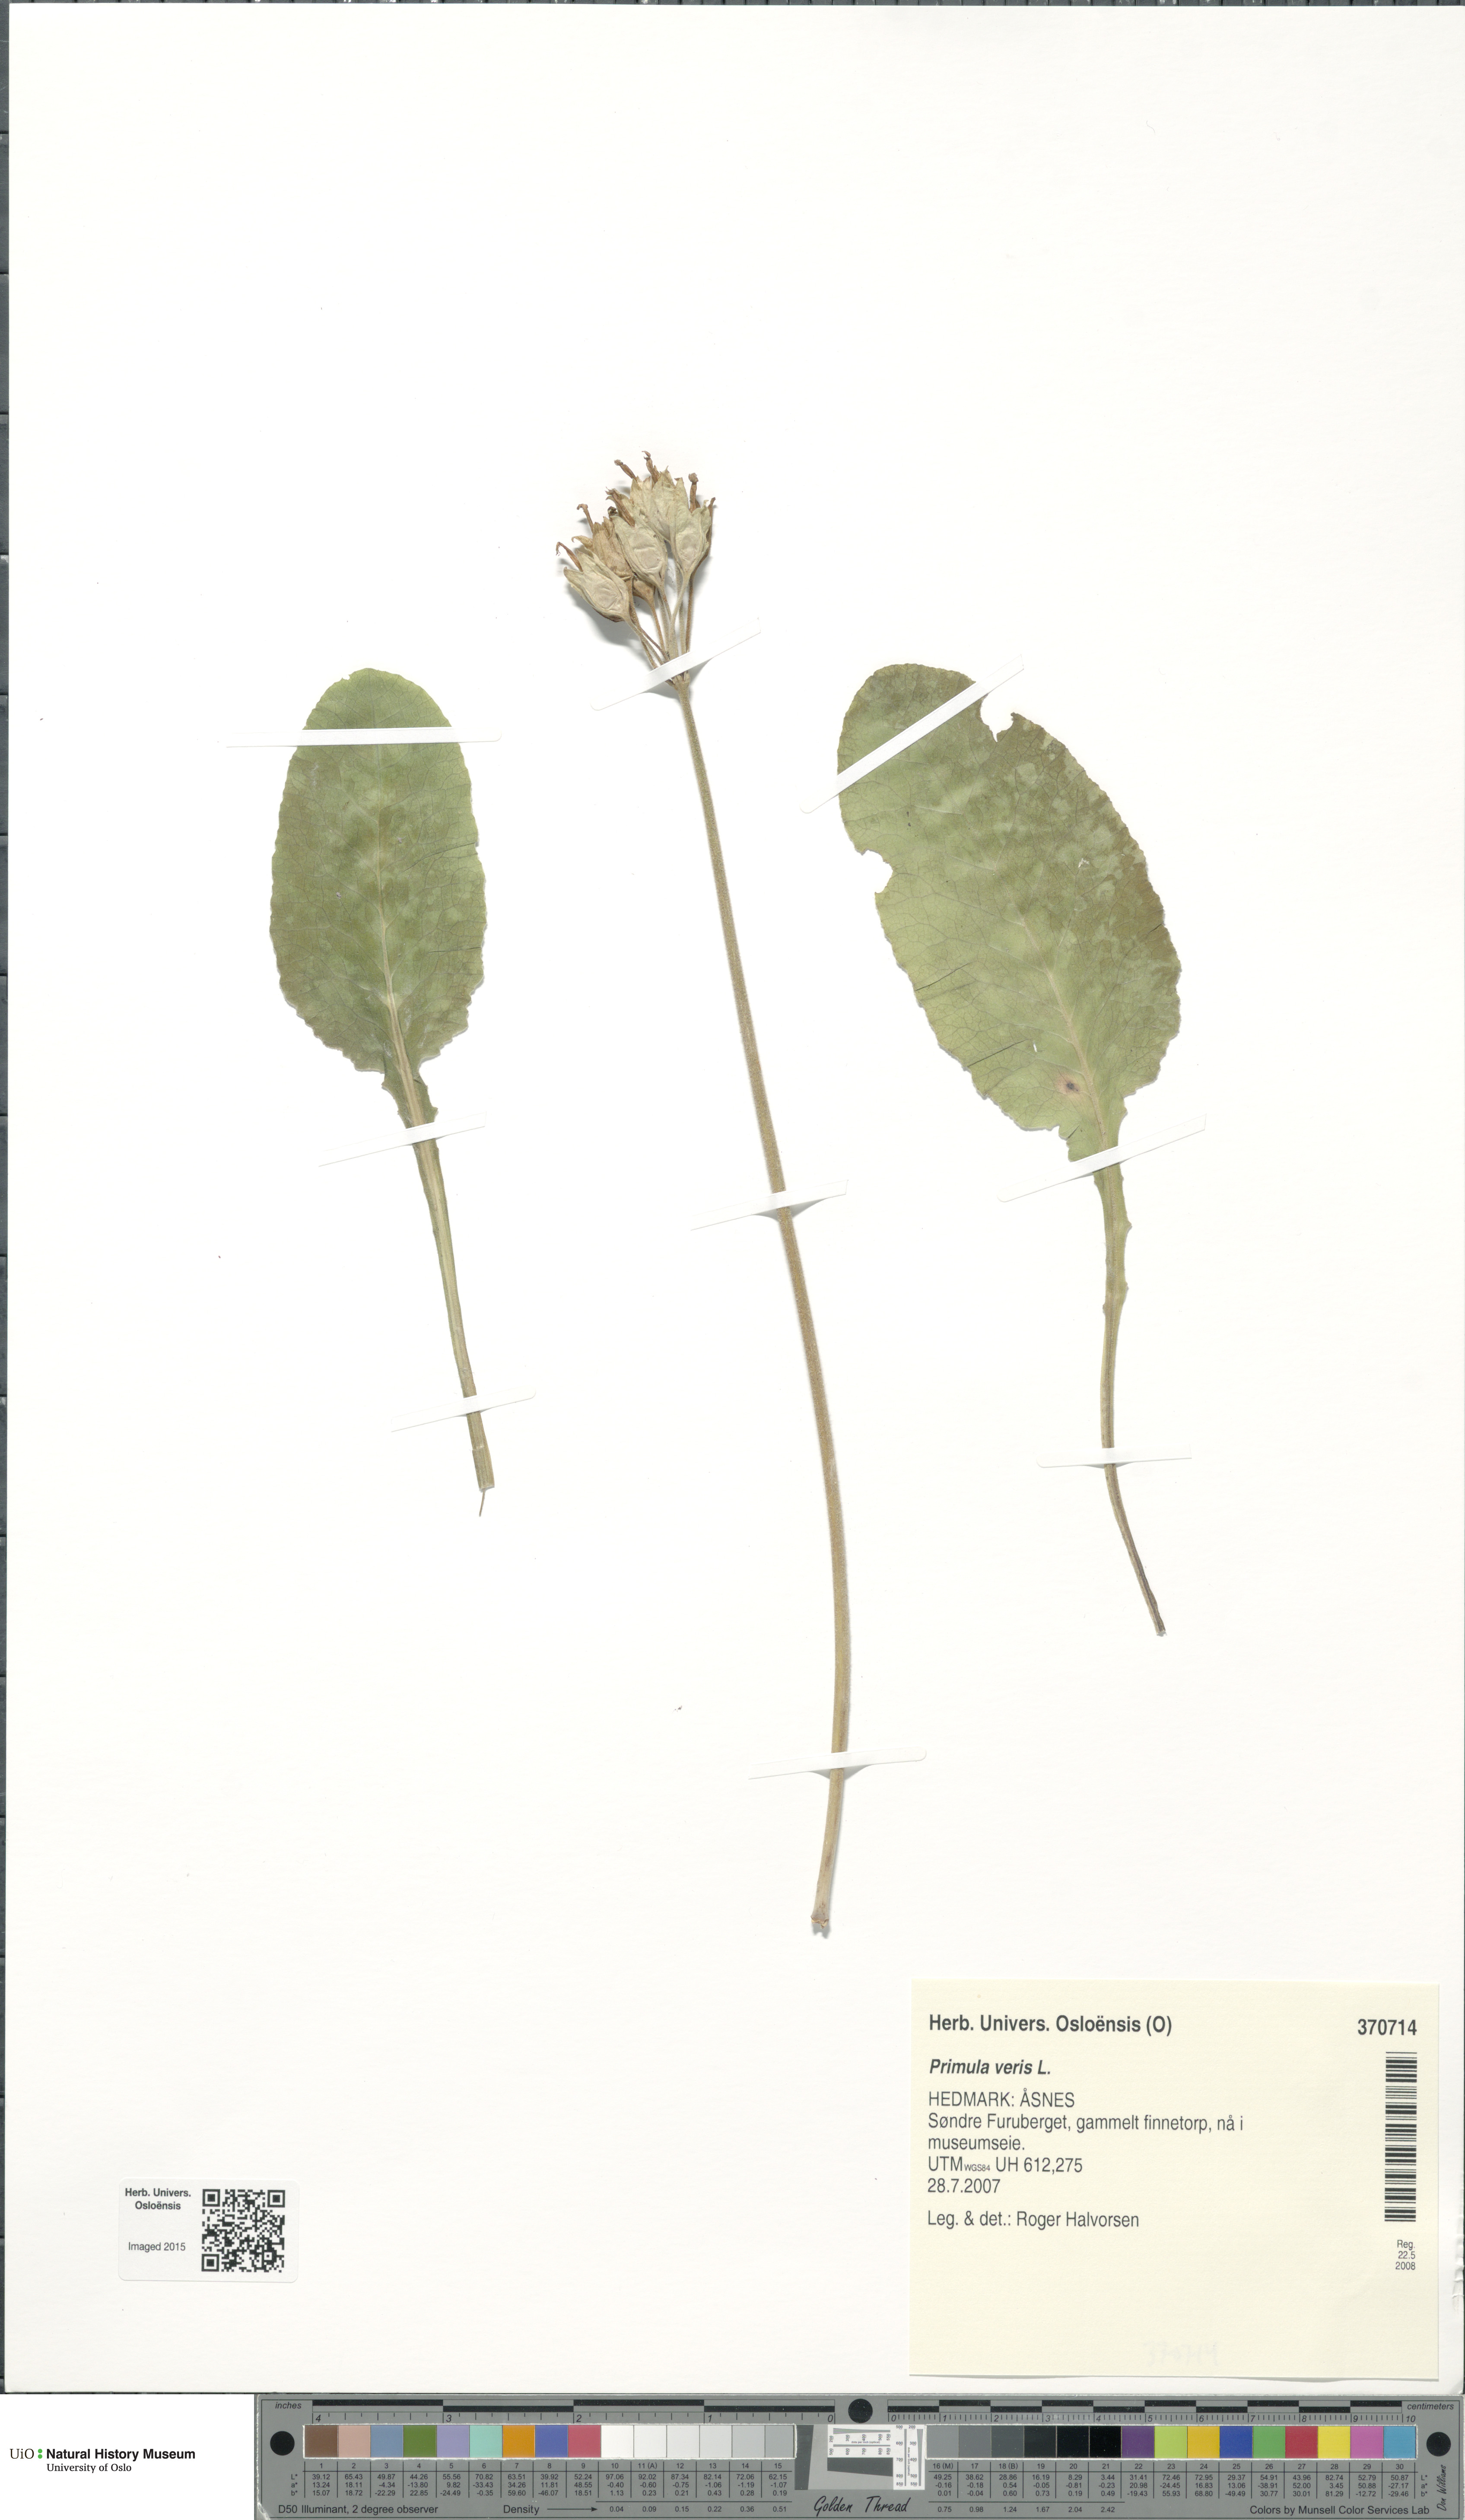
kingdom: Plantae
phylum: Tracheophyta
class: Magnoliopsida
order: Ericales
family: Primulaceae
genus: Primula
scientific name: Primula veris
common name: Cowslip
